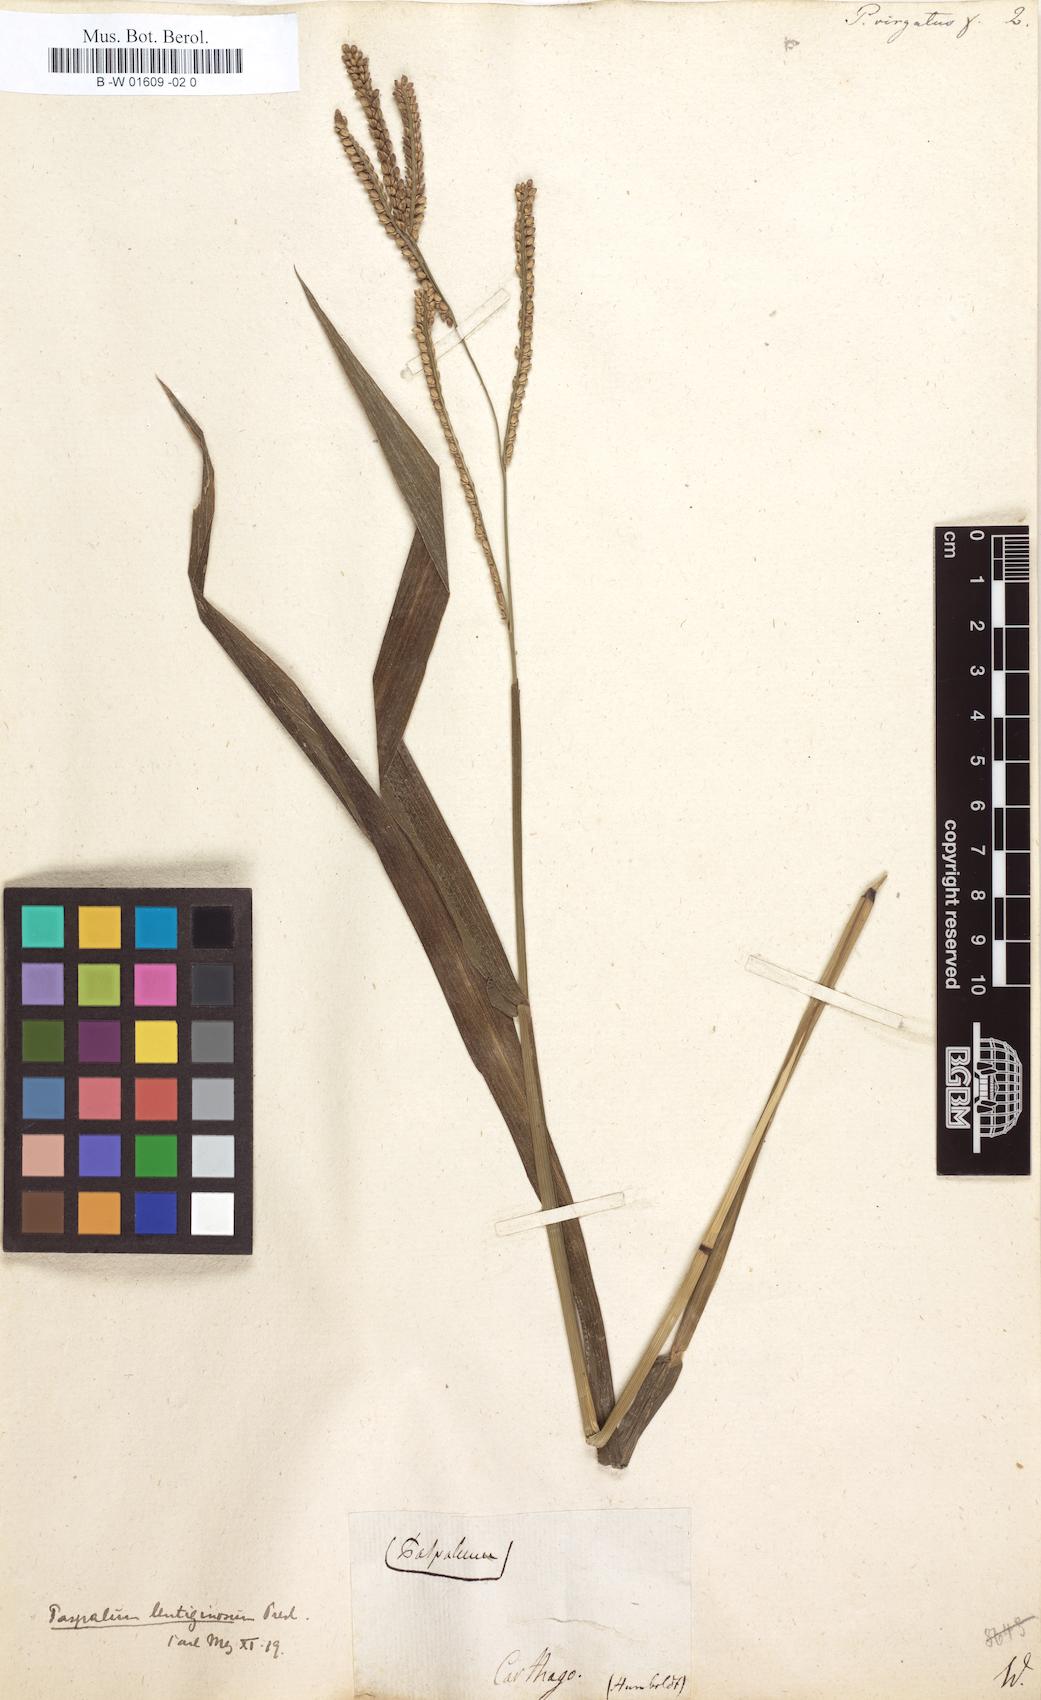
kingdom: Plantae
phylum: Tracheophyta
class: Liliopsida
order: Poales
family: Poaceae
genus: Paspalum
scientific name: Paspalum virgatum
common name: Talquezal
